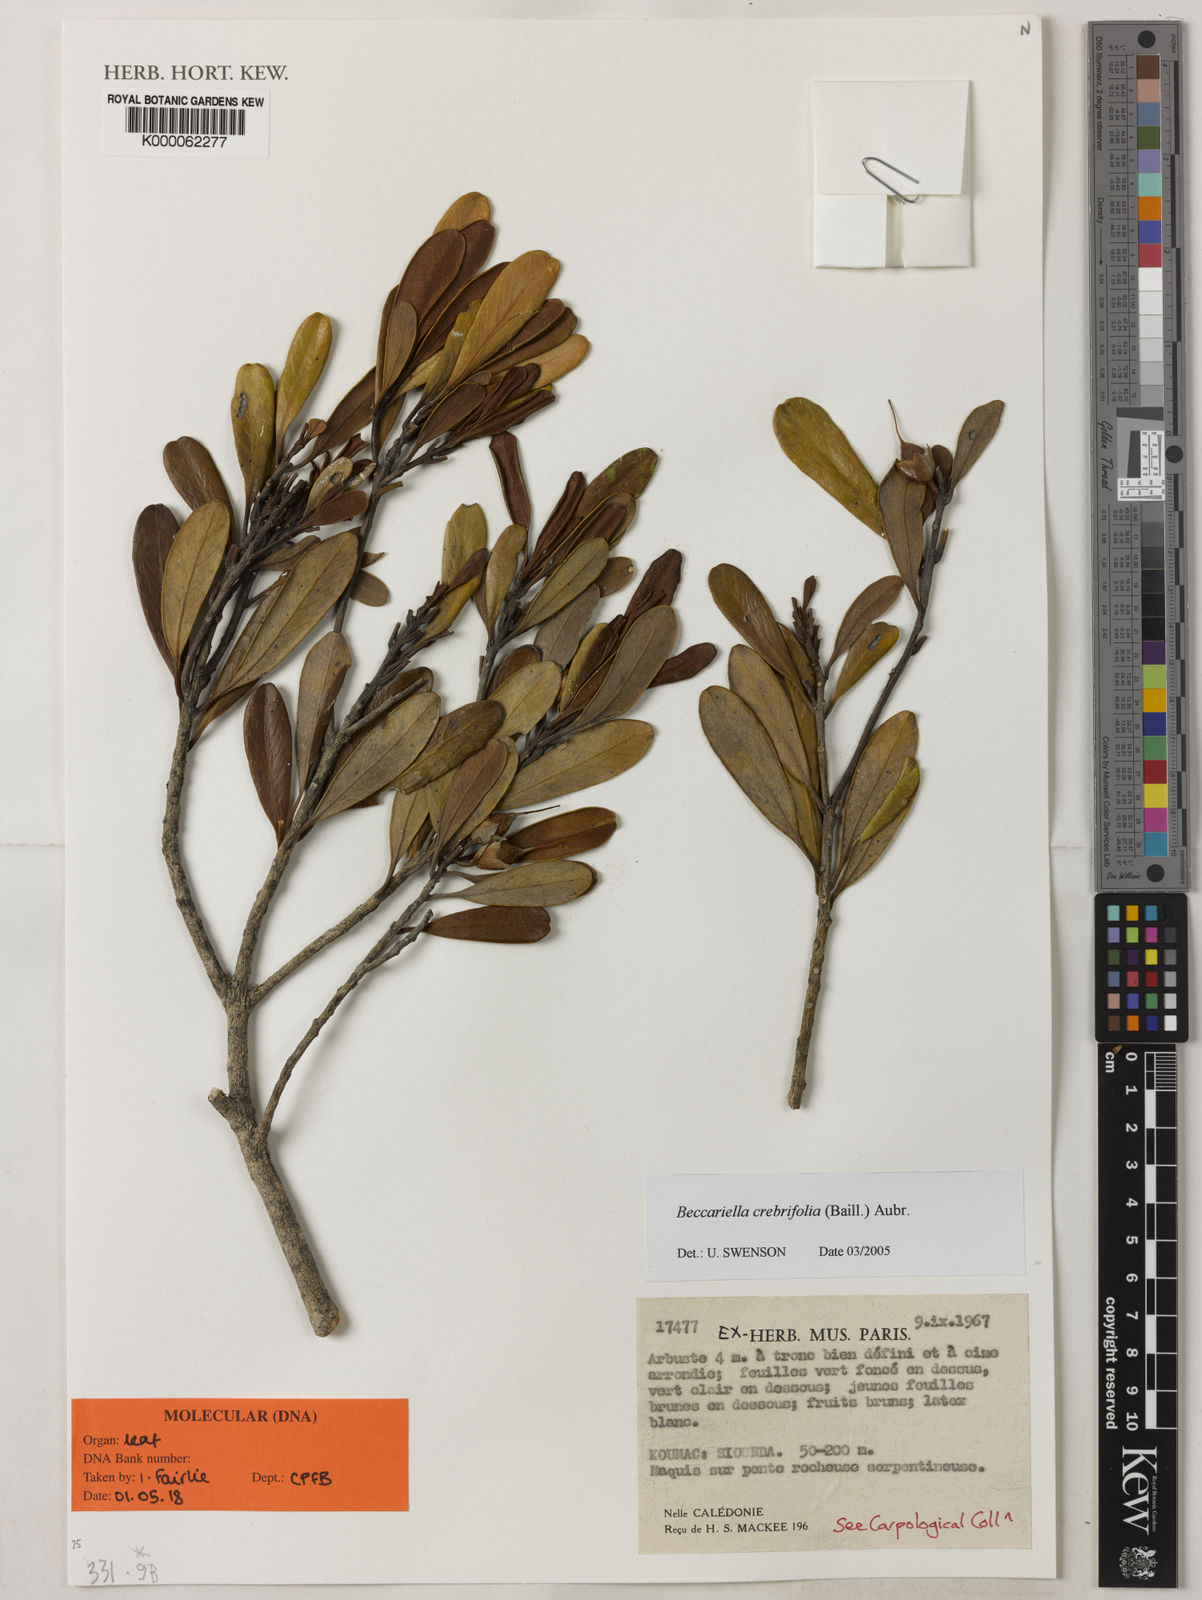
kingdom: Plantae
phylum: Tracheophyta
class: Magnoliopsida
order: Ericales
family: Sapotaceae
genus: Pleioluma
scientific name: Pleioluma crebrifolia
